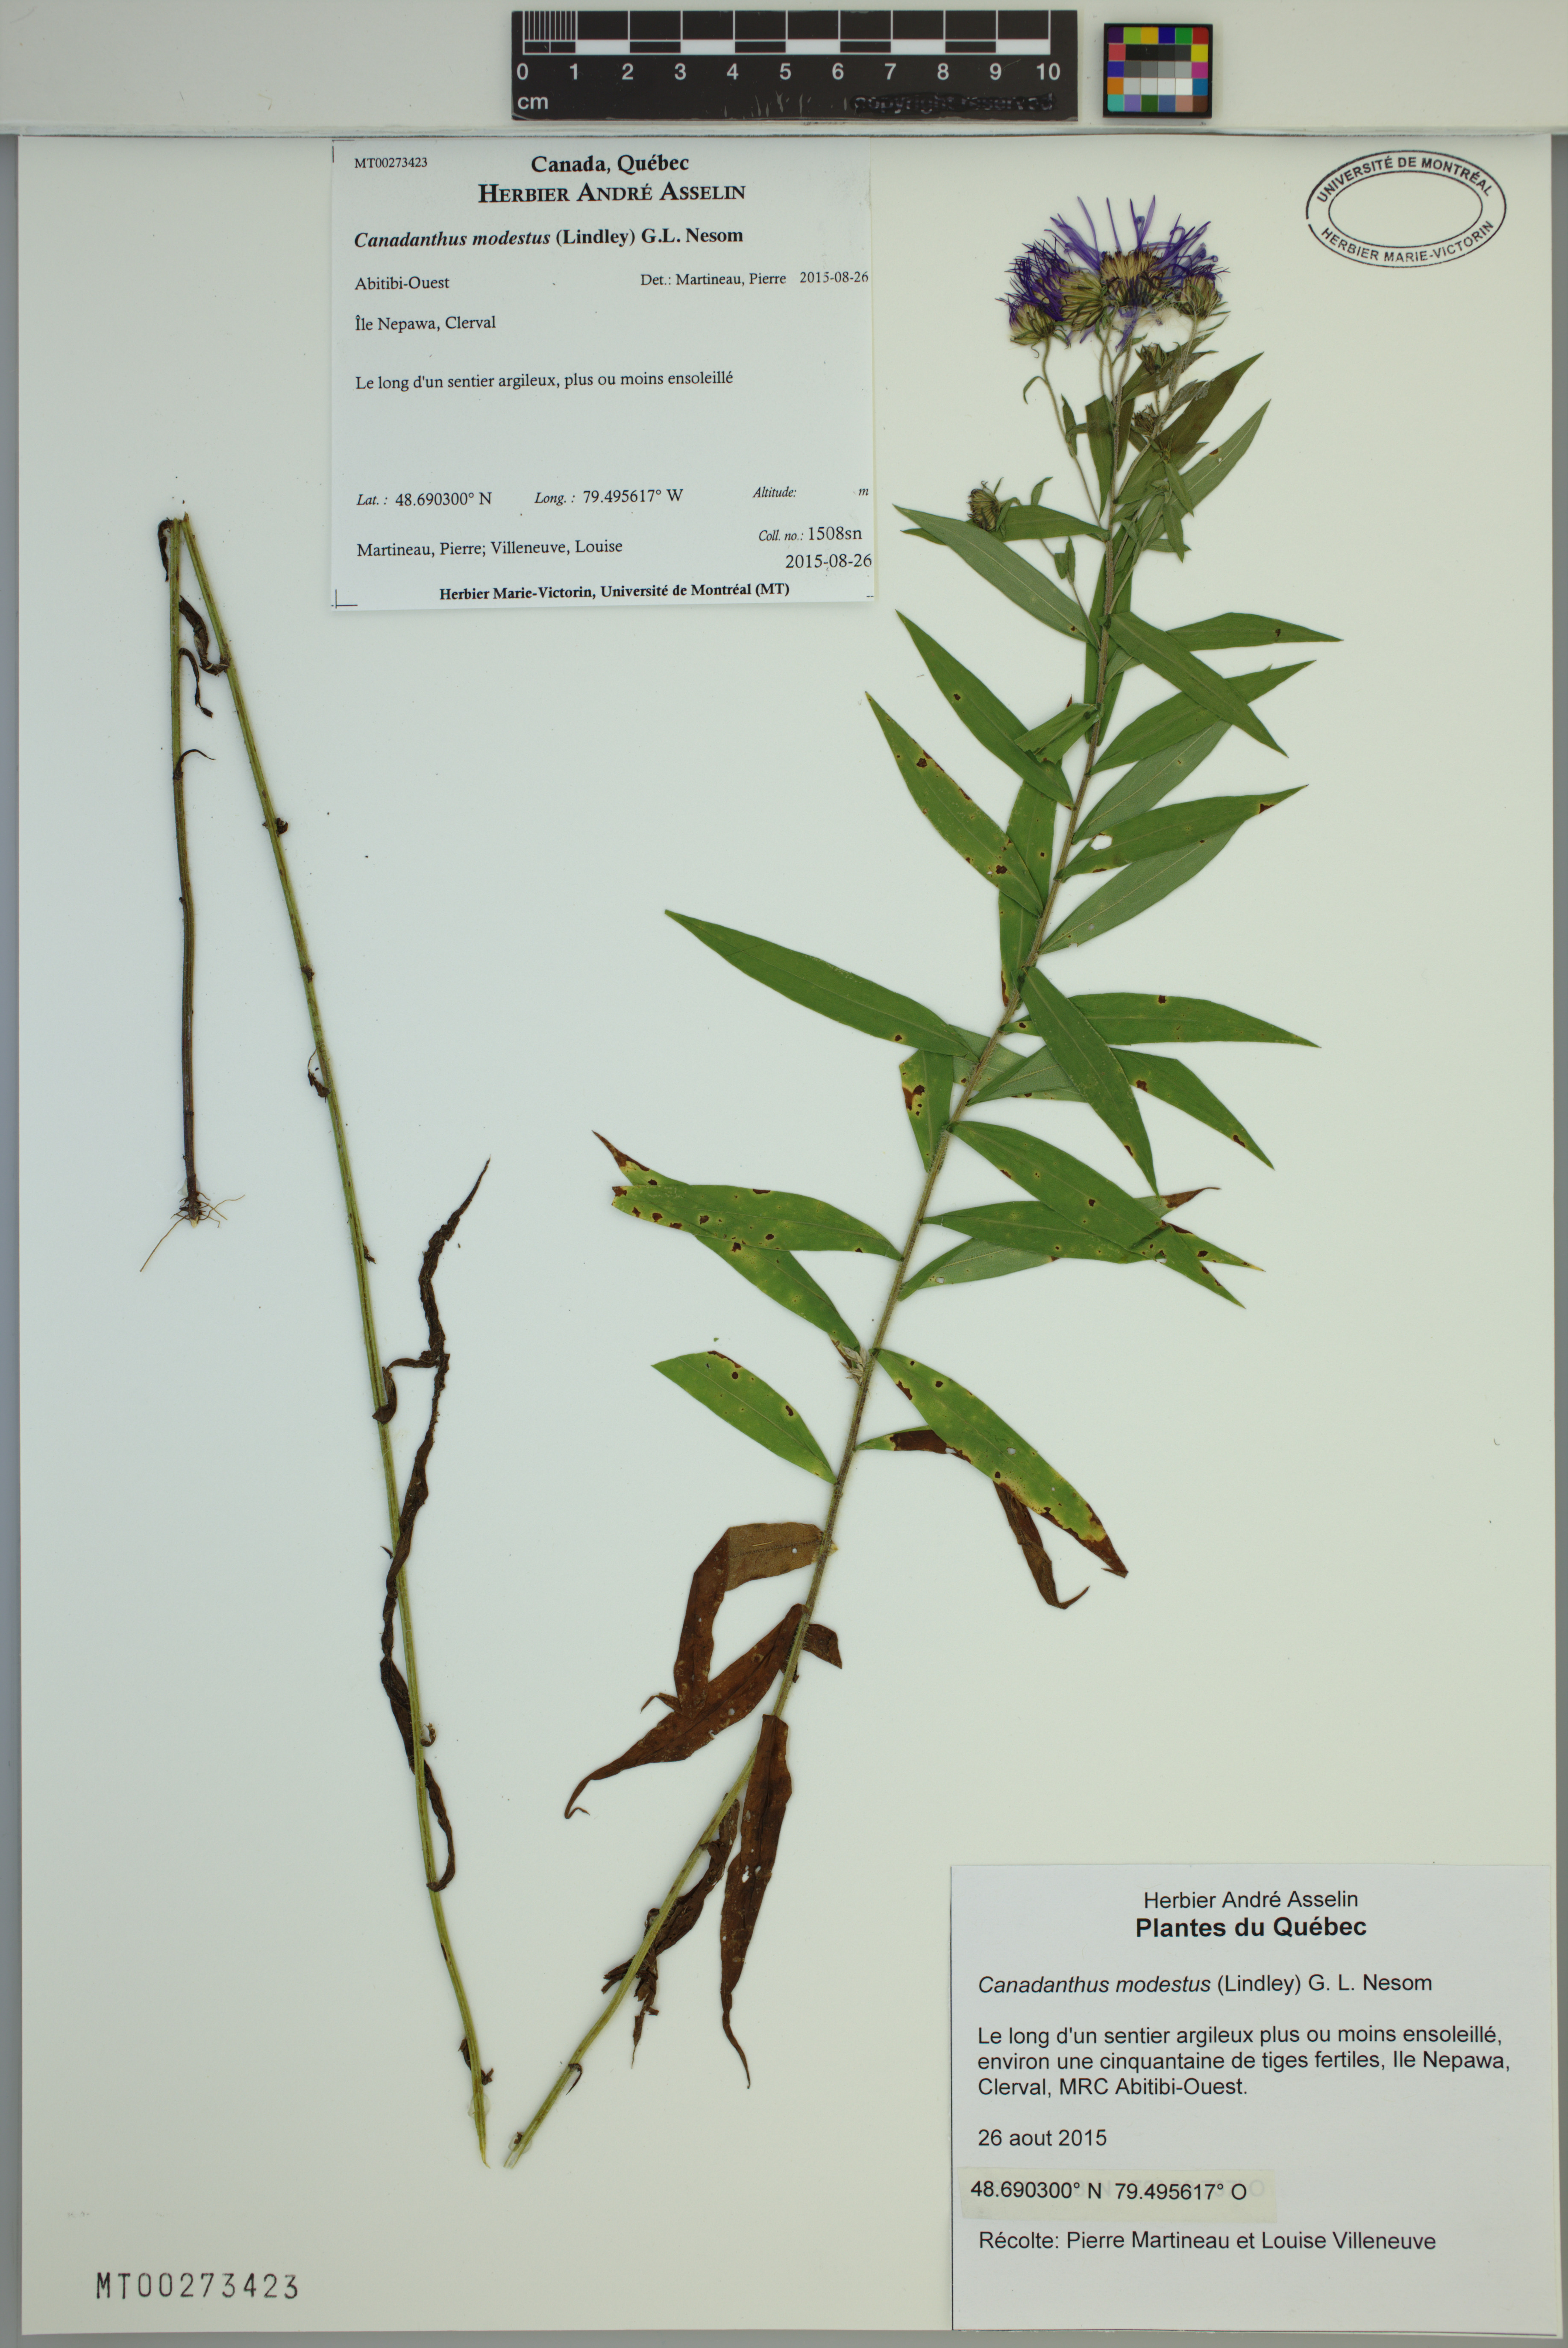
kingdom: Plantae
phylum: Tracheophyta
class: Magnoliopsida
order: Asterales
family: Asteraceae
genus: Canadanthus
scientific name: Canadanthus modestus
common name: Great northern aster
